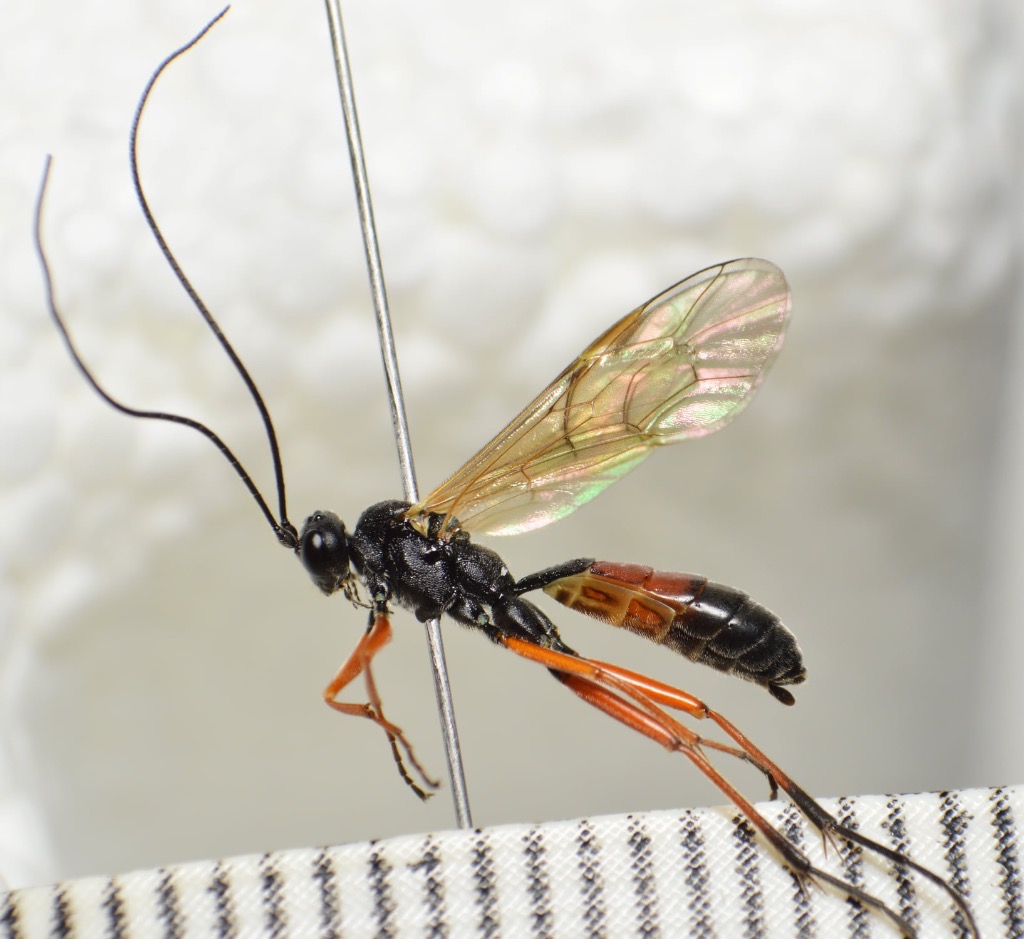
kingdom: Animalia
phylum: Arthropoda
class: Insecta
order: Hymenoptera
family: Ichneumonidae
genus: Lagarotis
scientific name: Lagarotis debitor
